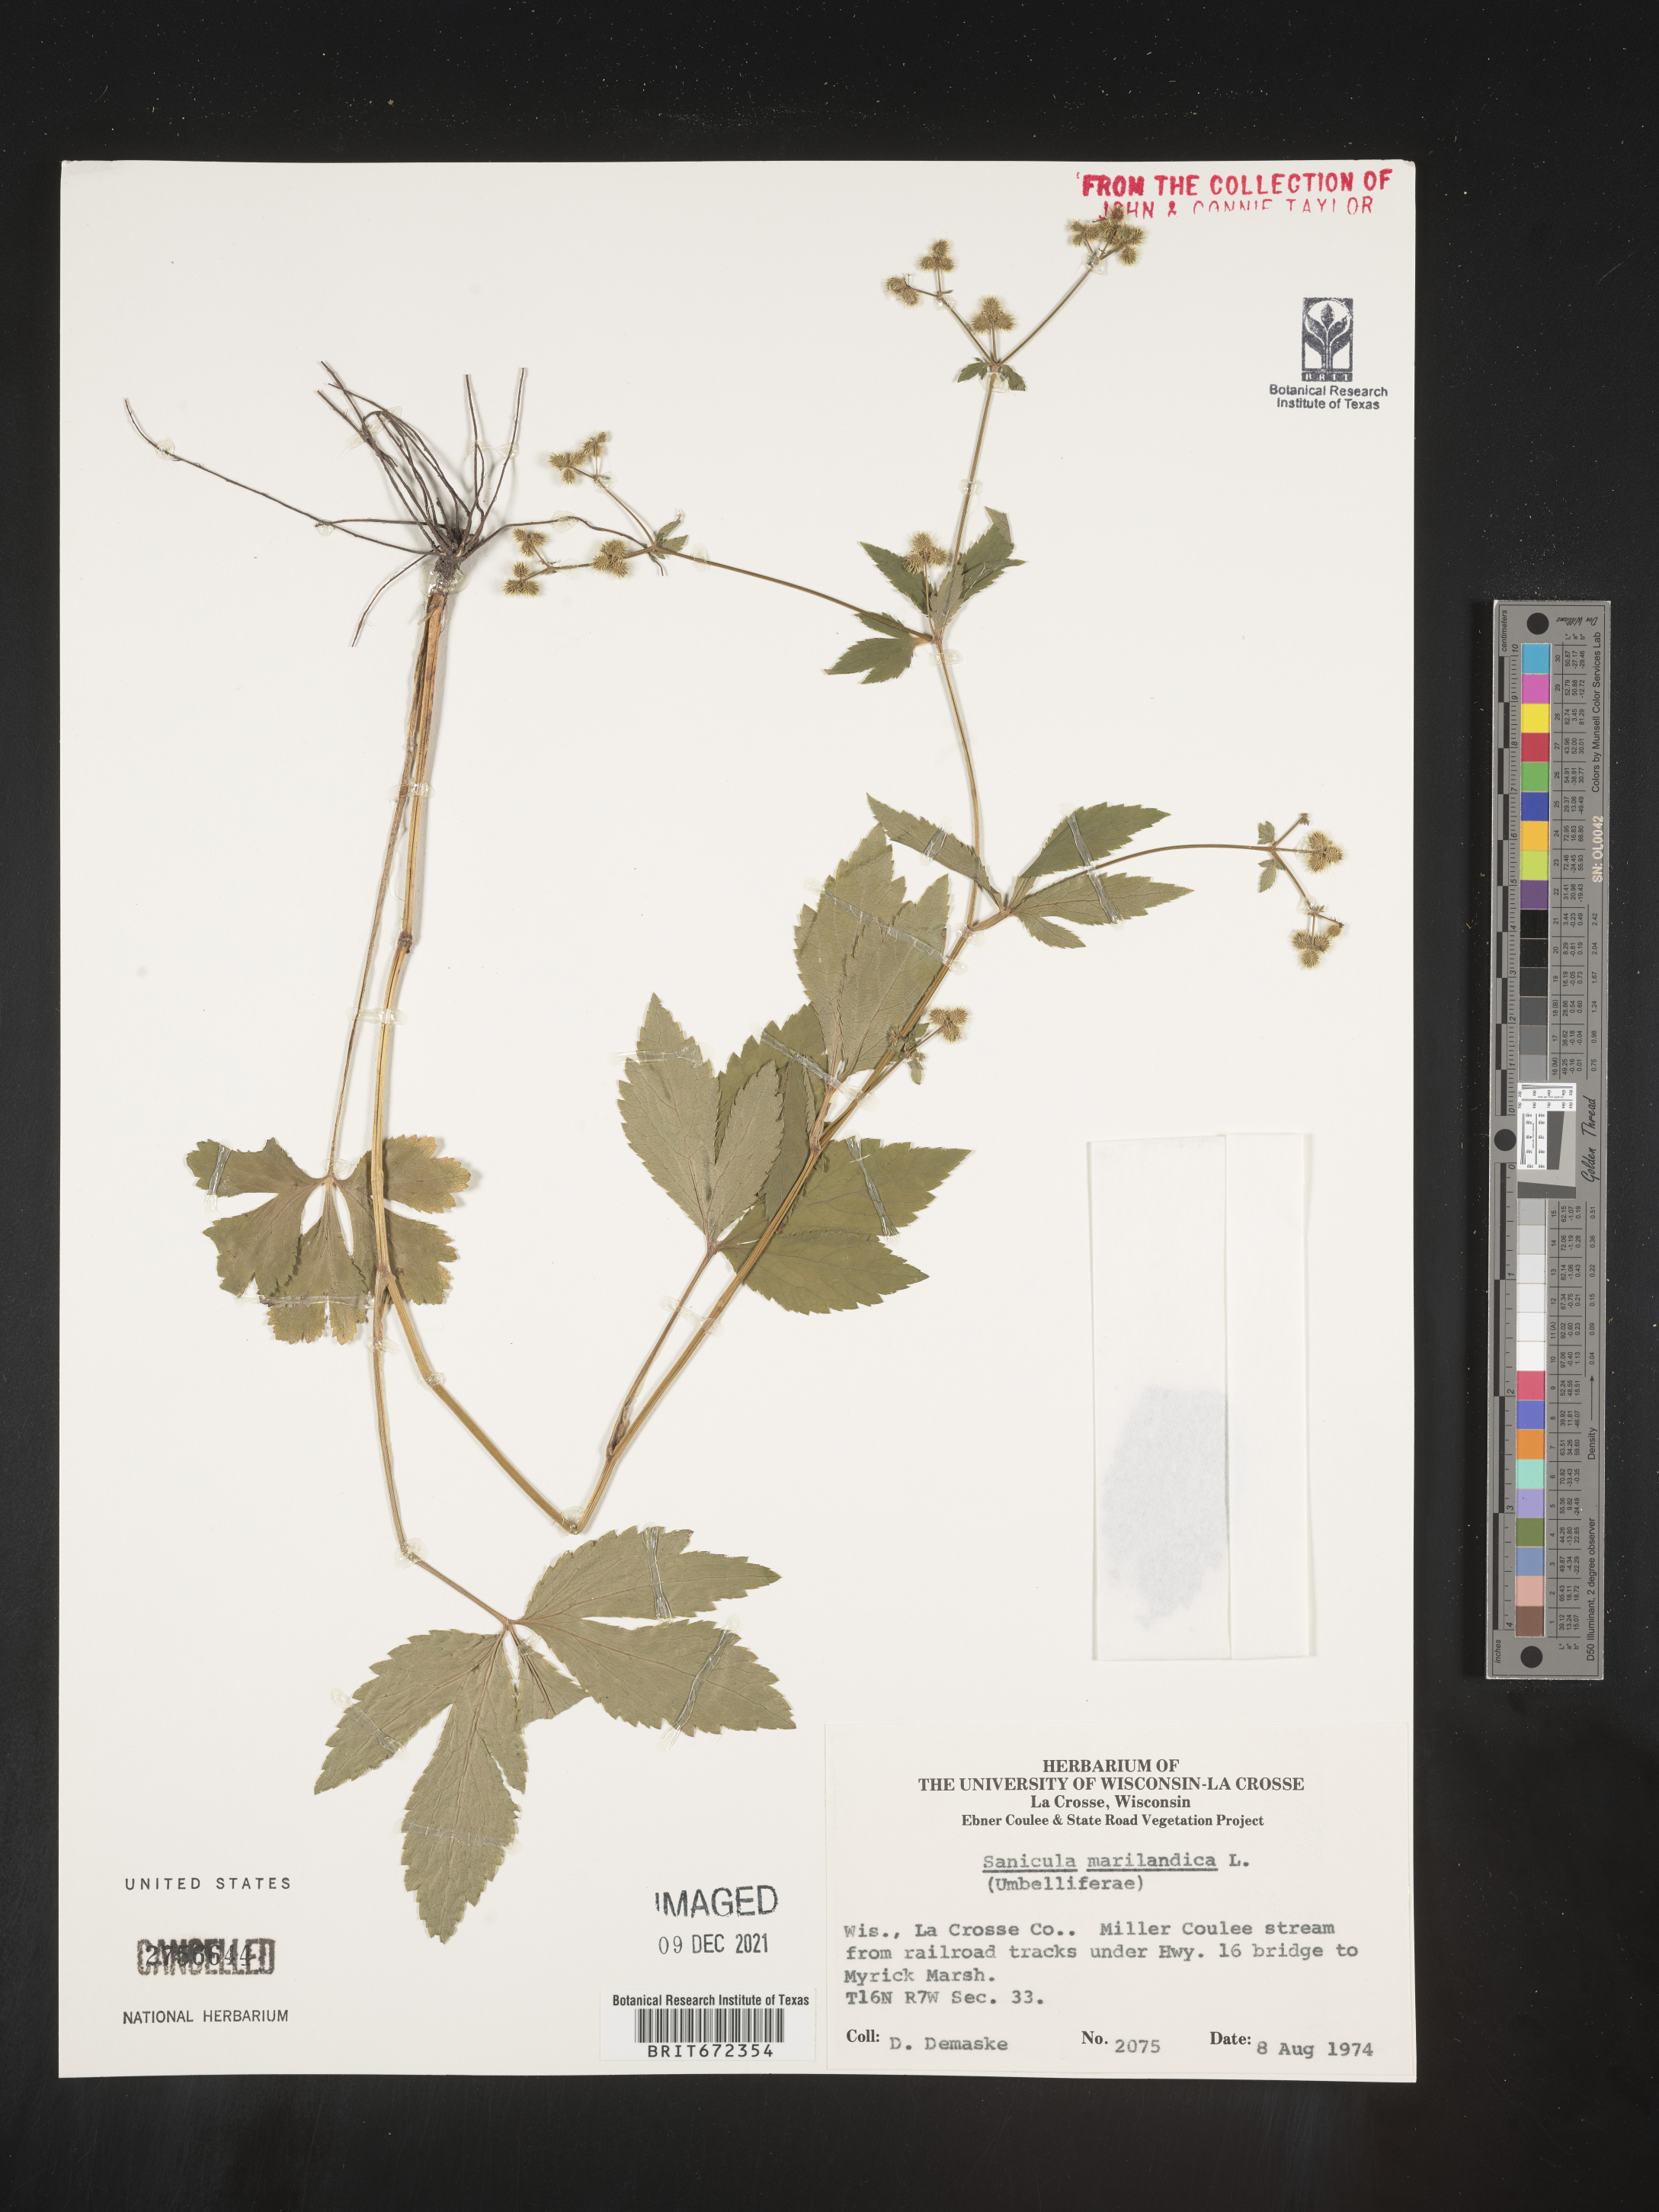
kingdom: Plantae
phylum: Tracheophyta
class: Magnoliopsida
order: Apiales
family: Apiaceae
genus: Sanicula
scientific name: Sanicula marilandica
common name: Black snakeroot
